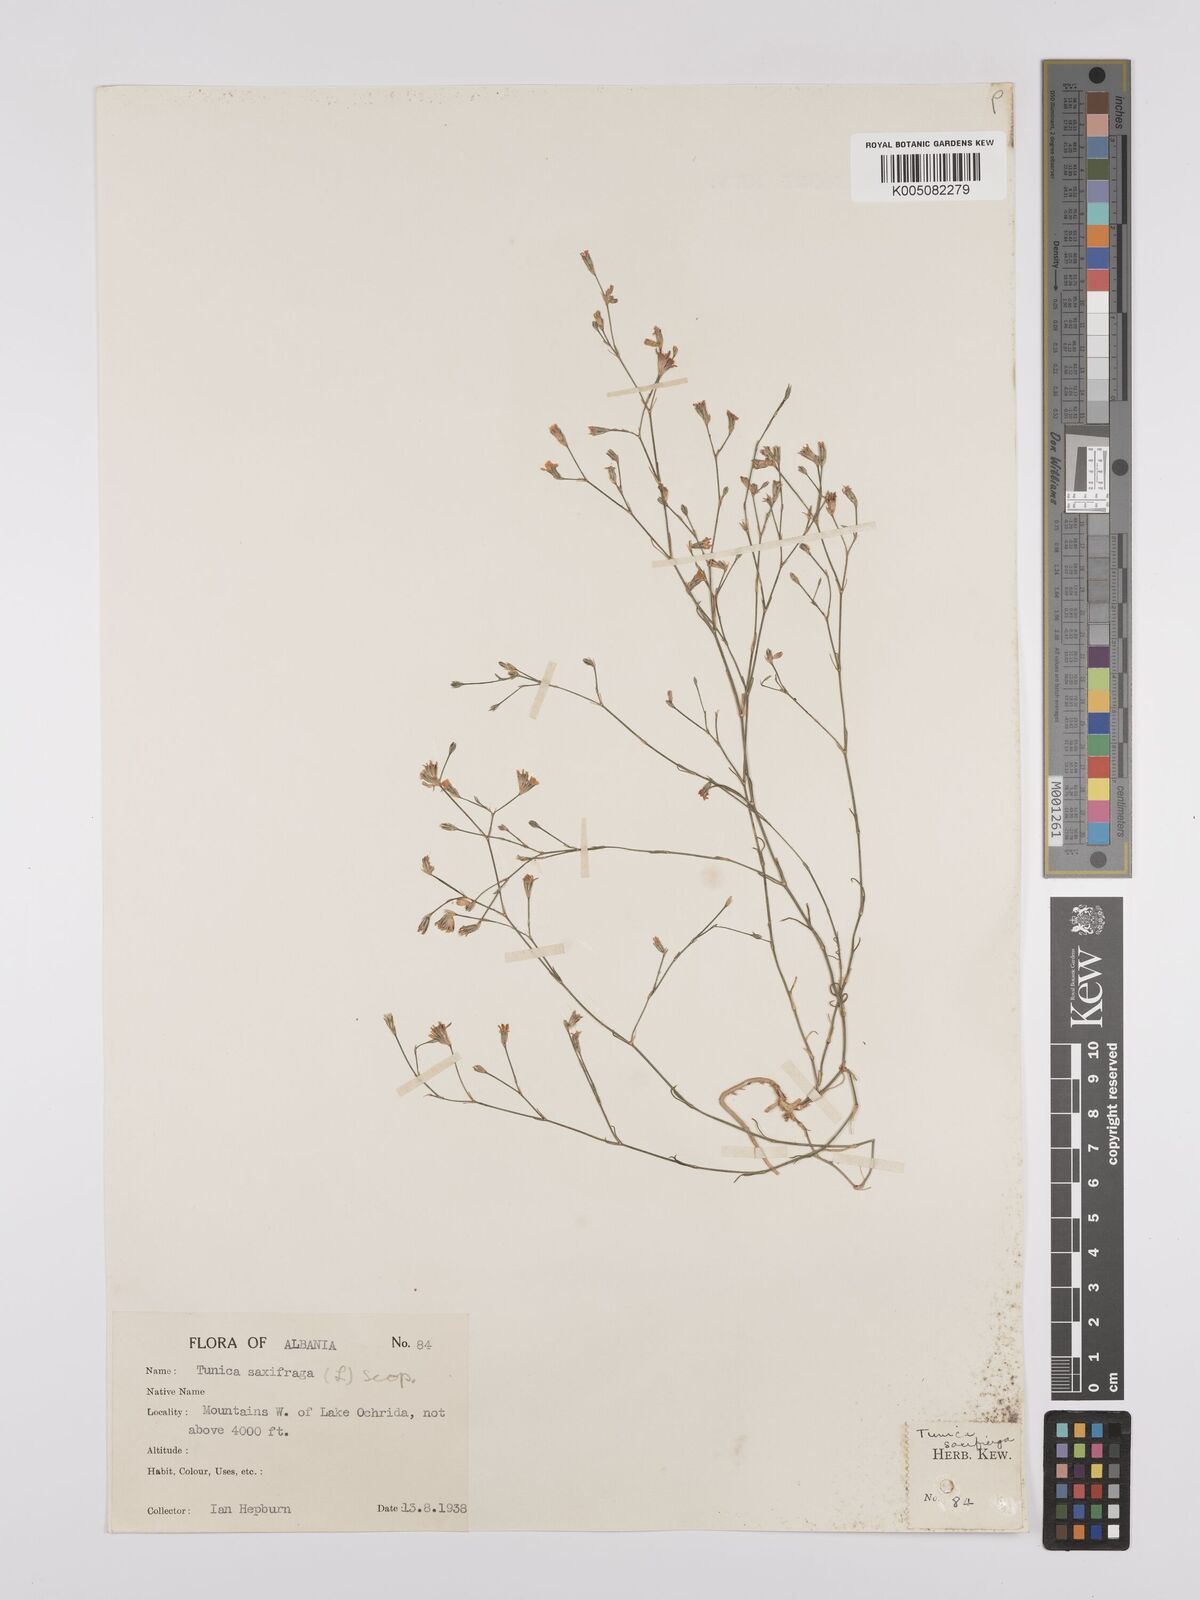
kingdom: Plantae
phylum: Tracheophyta
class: Magnoliopsida
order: Caryophyllales
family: Caryophyllaceae
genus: Petrorhagia
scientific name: Petrorhagia saxifraga
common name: Tunicflower
